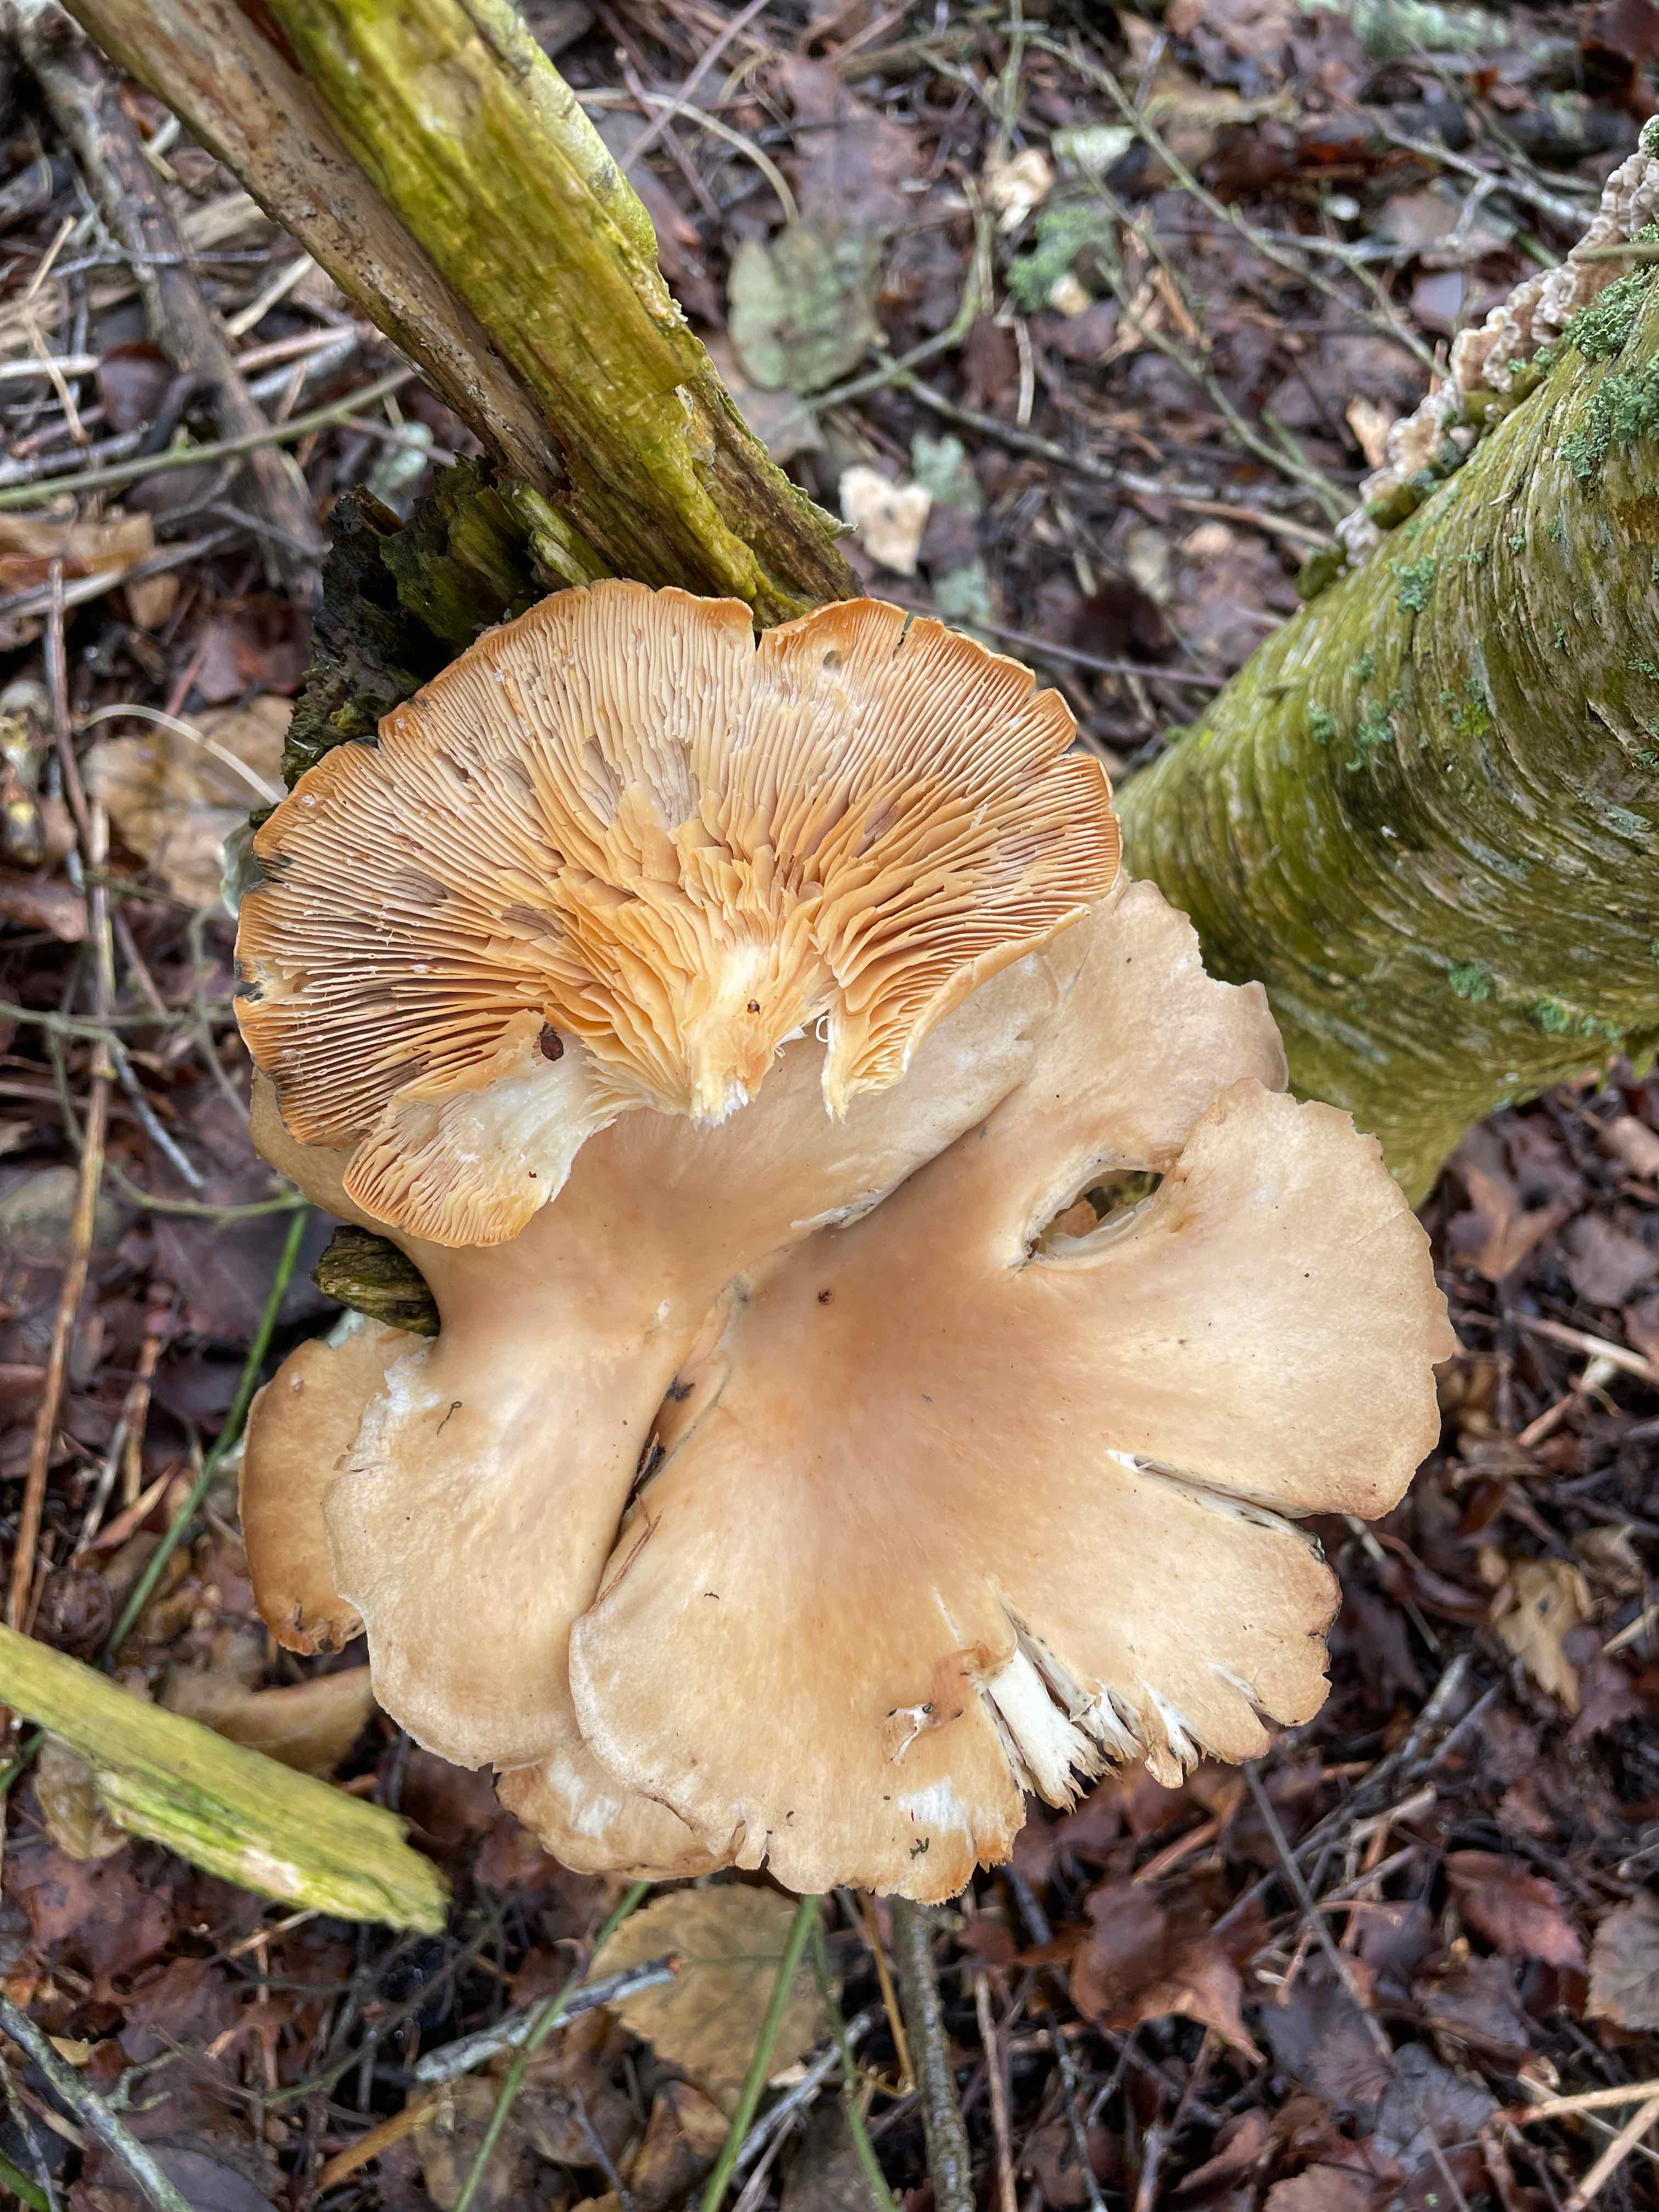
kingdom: Fungi
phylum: Basidiomycota
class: Agaricomycetes
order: Agaricales
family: Pleurotaceae
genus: Pleurotus
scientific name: Pleurotus ostreatus
